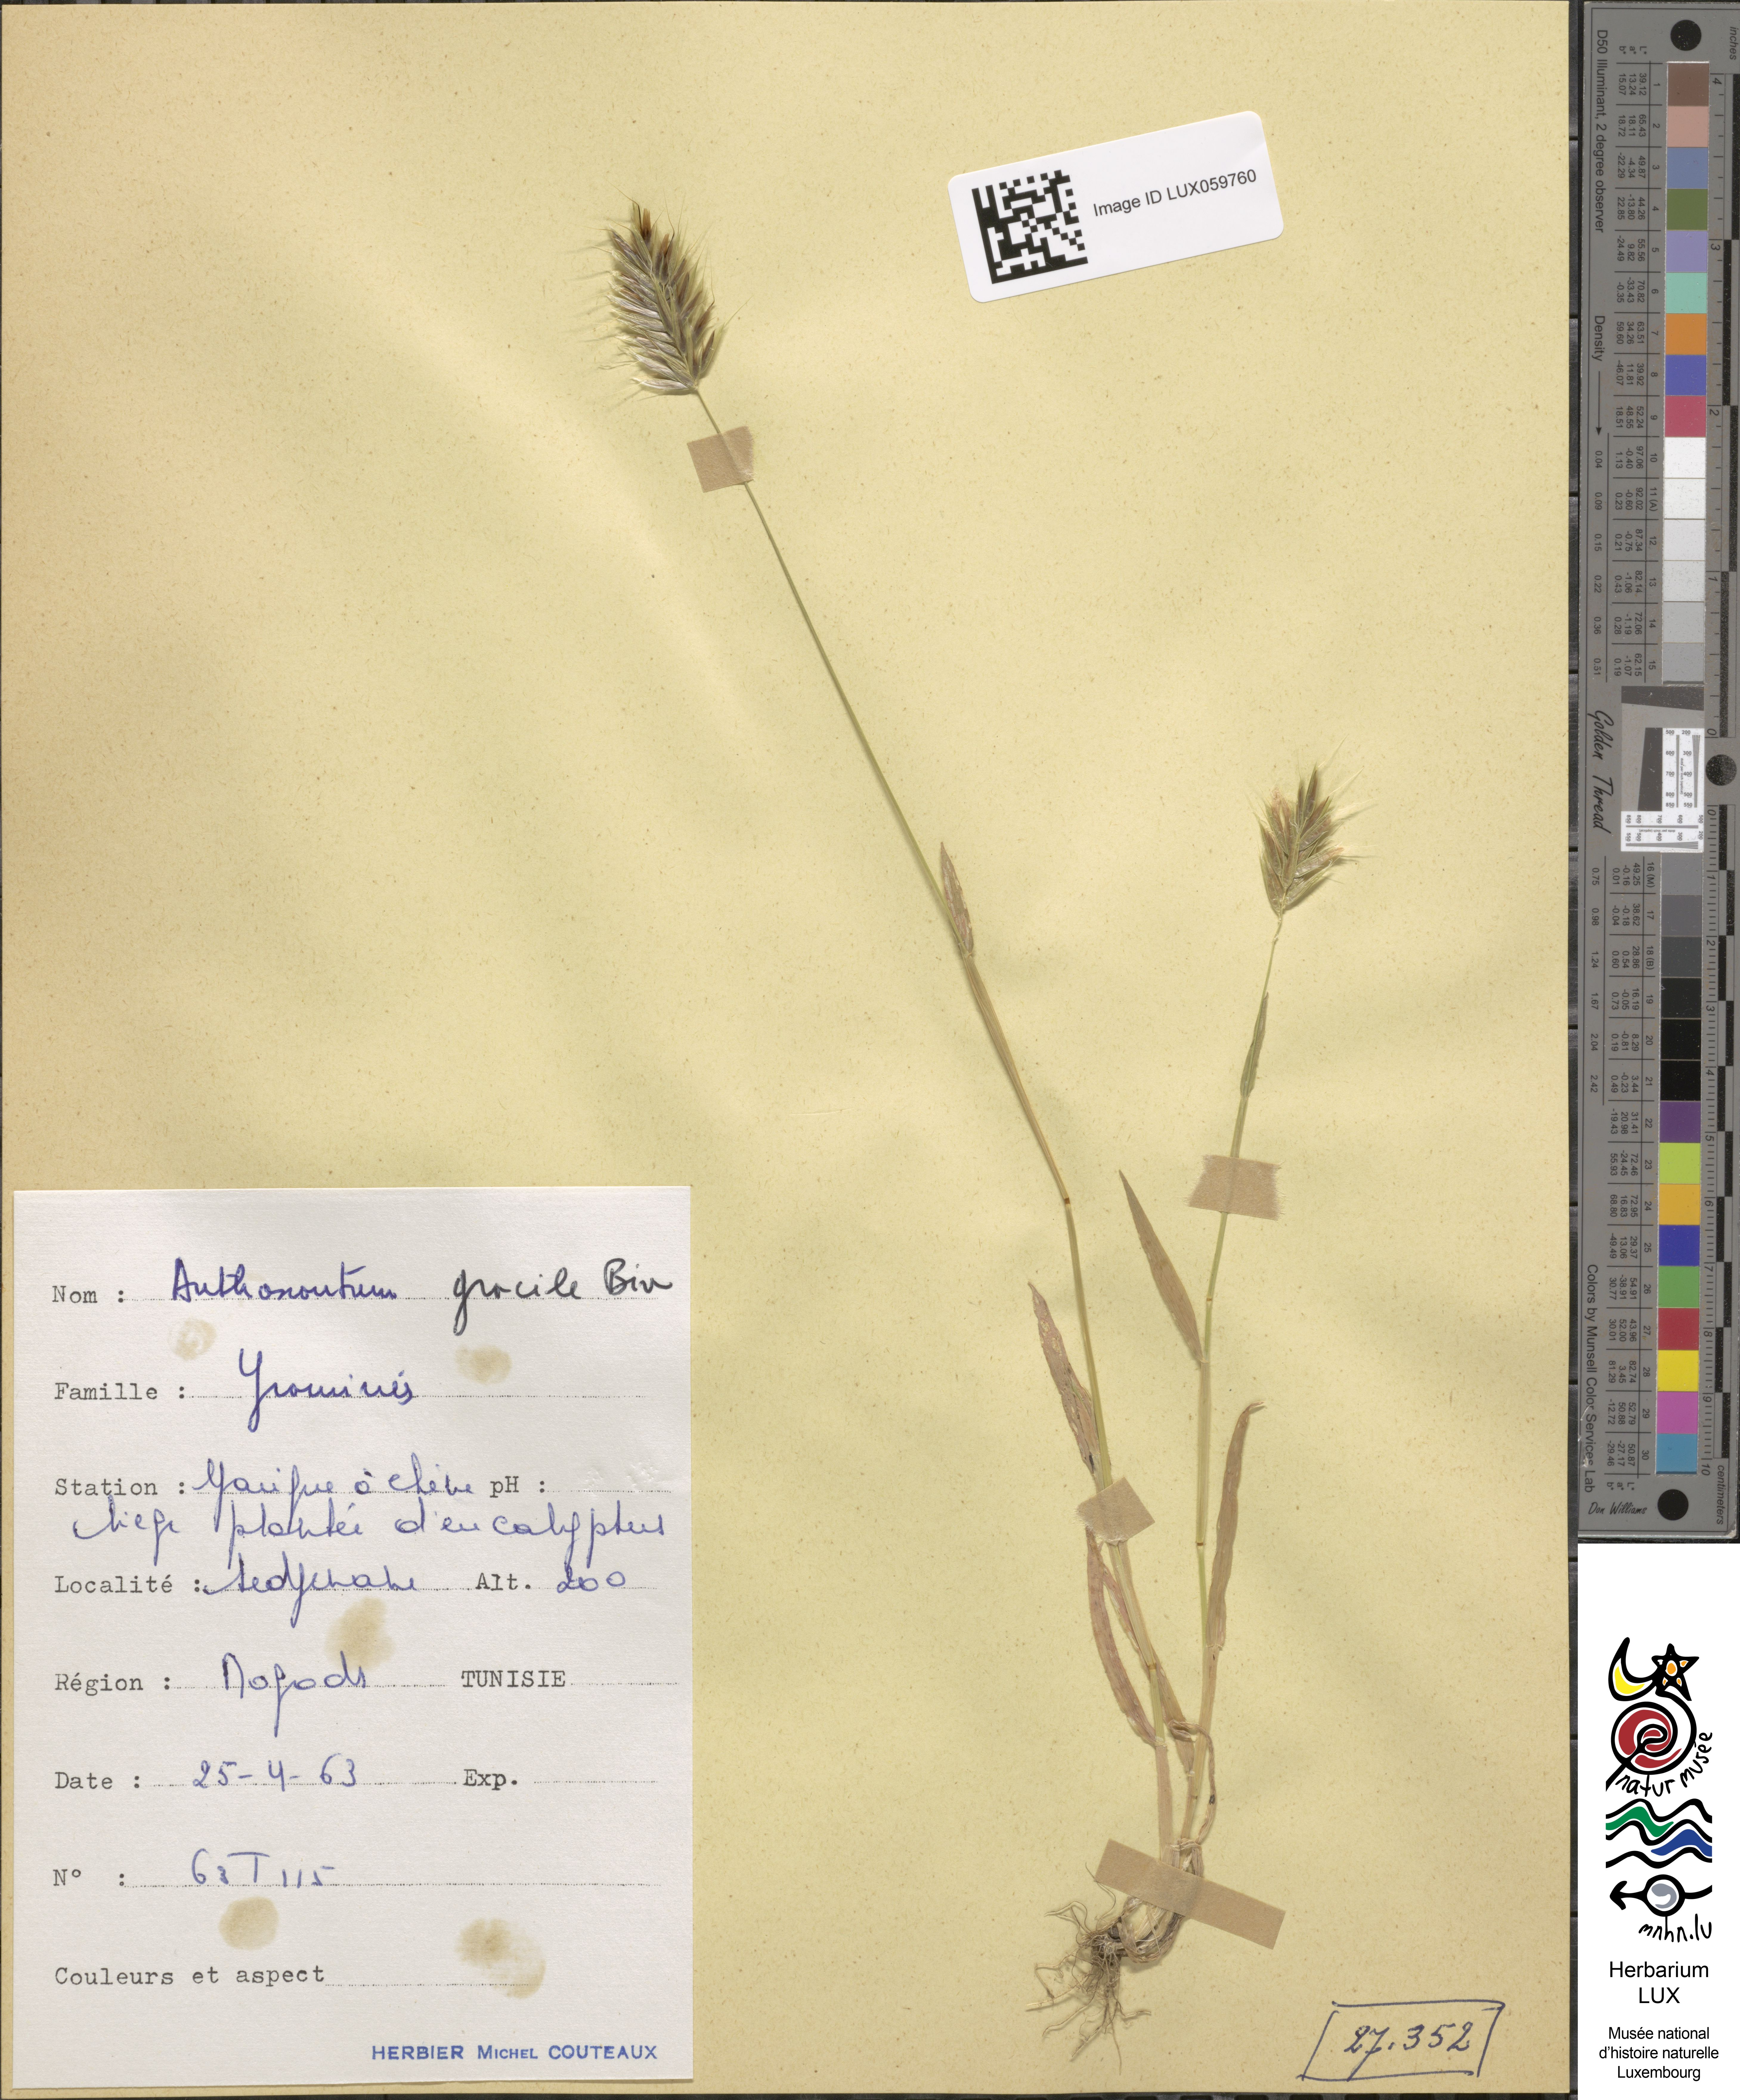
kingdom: Plantae
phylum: Tracheophyta
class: Liliopsida
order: Poales
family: Poaceae
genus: Anthoxanthum
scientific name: Anthoxanthum gracile
